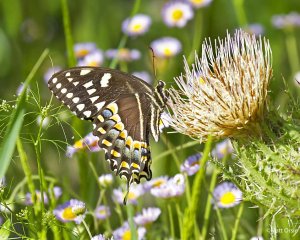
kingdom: Animalia
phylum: Arthropoda
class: Insecta
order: Lepidoptera
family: Papilionidae
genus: Pterourus
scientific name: Pterourus palamedes
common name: Palamedes Swallowtail
